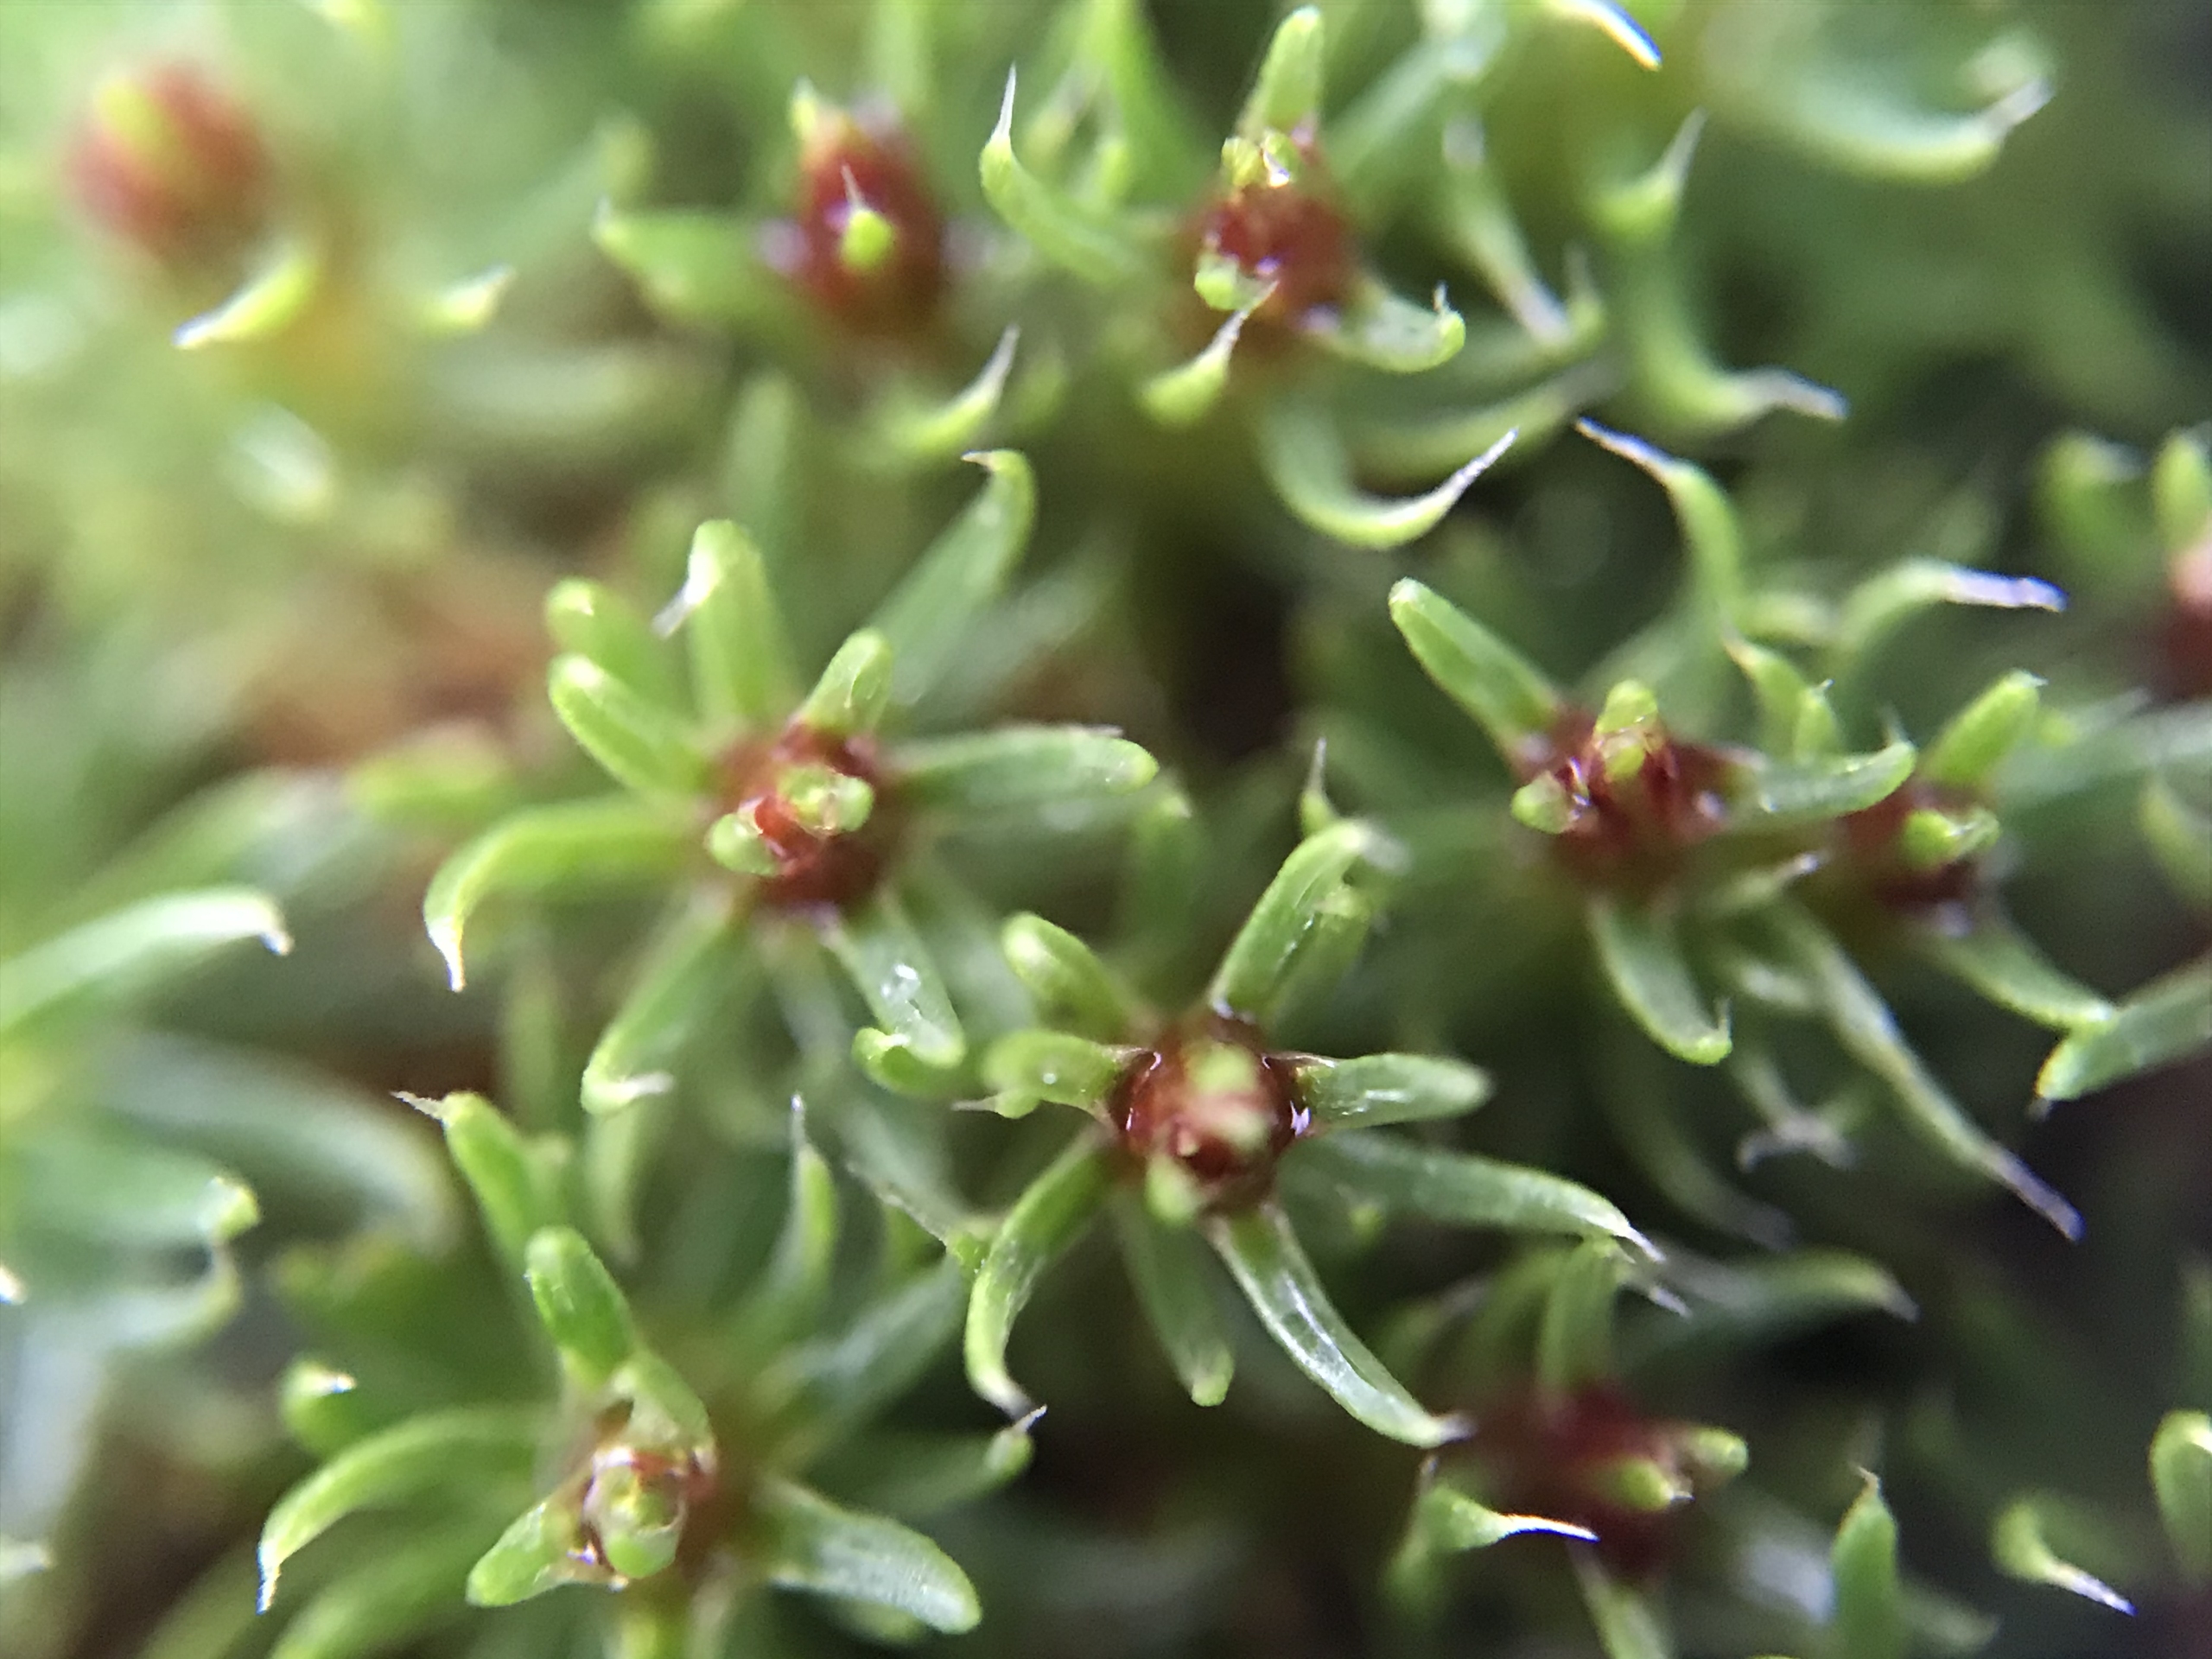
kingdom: Plantae
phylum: Bryophyta
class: Polytrichopsida
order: Polytrichales
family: Polytrichaceae
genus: Polytrichum
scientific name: Polytrichum piliferum
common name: Hårspidset jomfruhår
